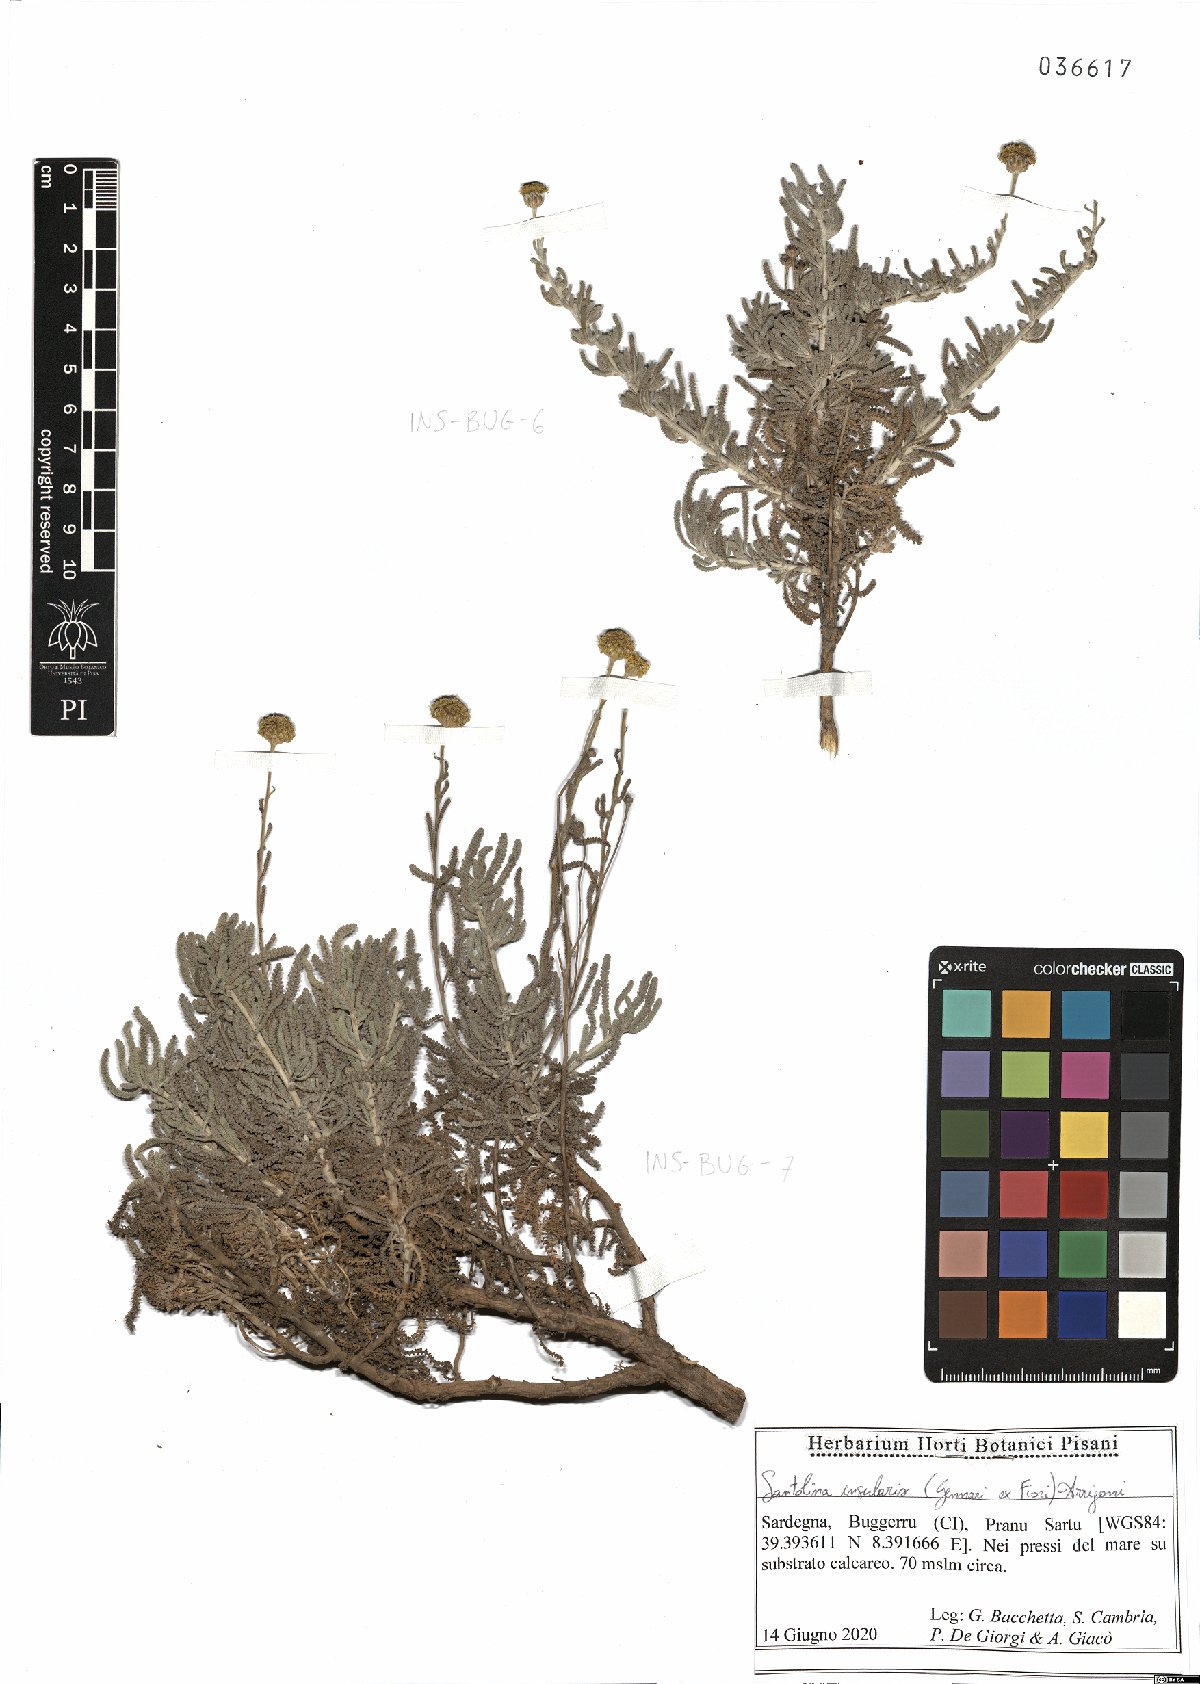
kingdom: Plantae
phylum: Tracheophyta
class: Magnoliopsida
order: Asterales
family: Asteraceae
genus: Santolina
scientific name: Santolina insularis
